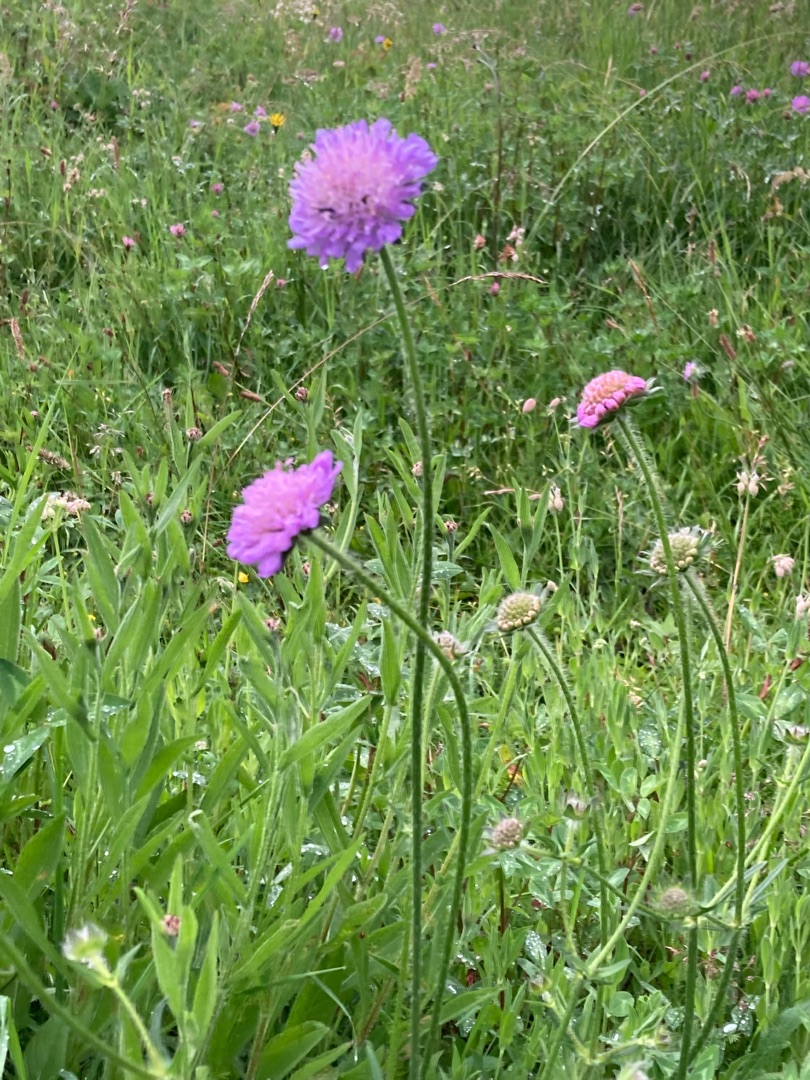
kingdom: Plantae
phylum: Tracheophyta
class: Magnoliopsida
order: Dipsacales
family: Caprifoliaceae
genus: Knautia
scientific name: Knautia arvensis
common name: Blåhat
